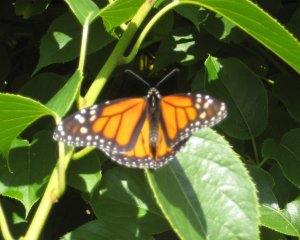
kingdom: Animalia
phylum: Arthropoda
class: Insecta
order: Lepidoptera
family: Nymphalidae
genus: Danaus
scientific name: Danaus plexippus
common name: Monarch
